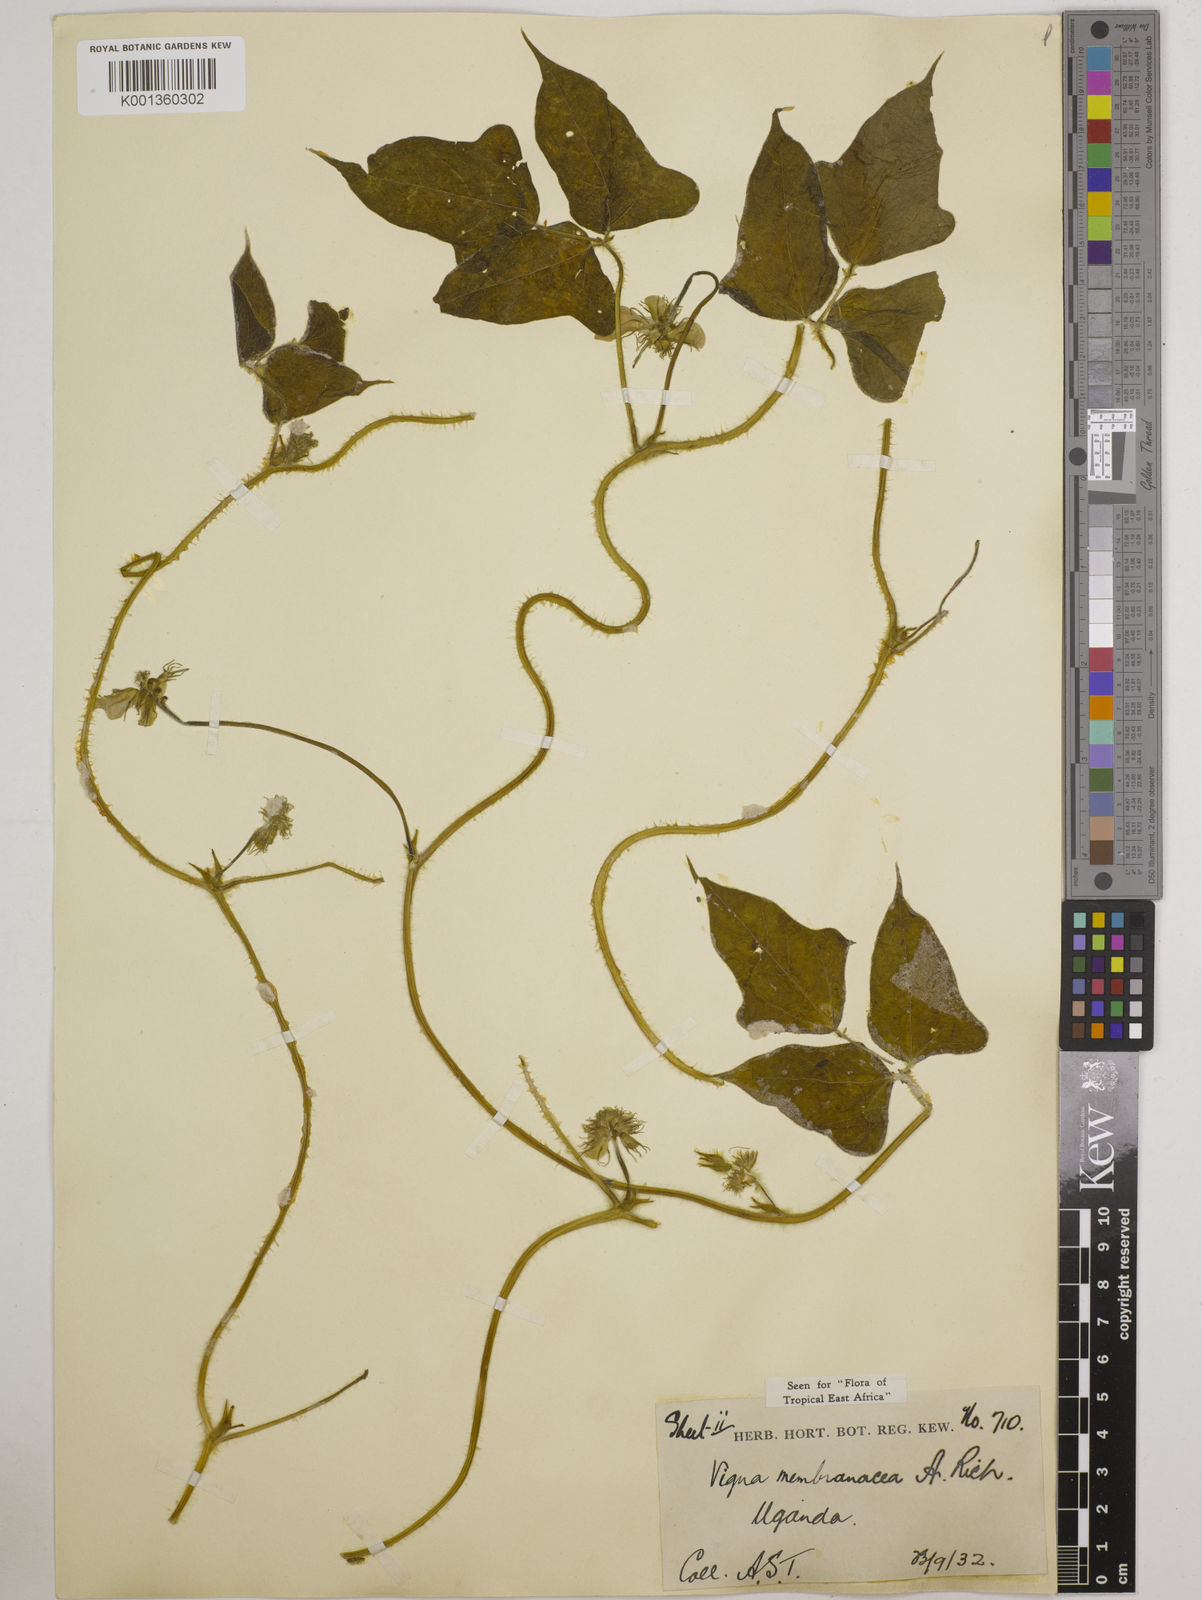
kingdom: Plantae
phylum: Tracheophyta
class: Magnoliopsida
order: Fabales
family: Fabaceae
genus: Vigna
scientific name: Vigna membranacea
